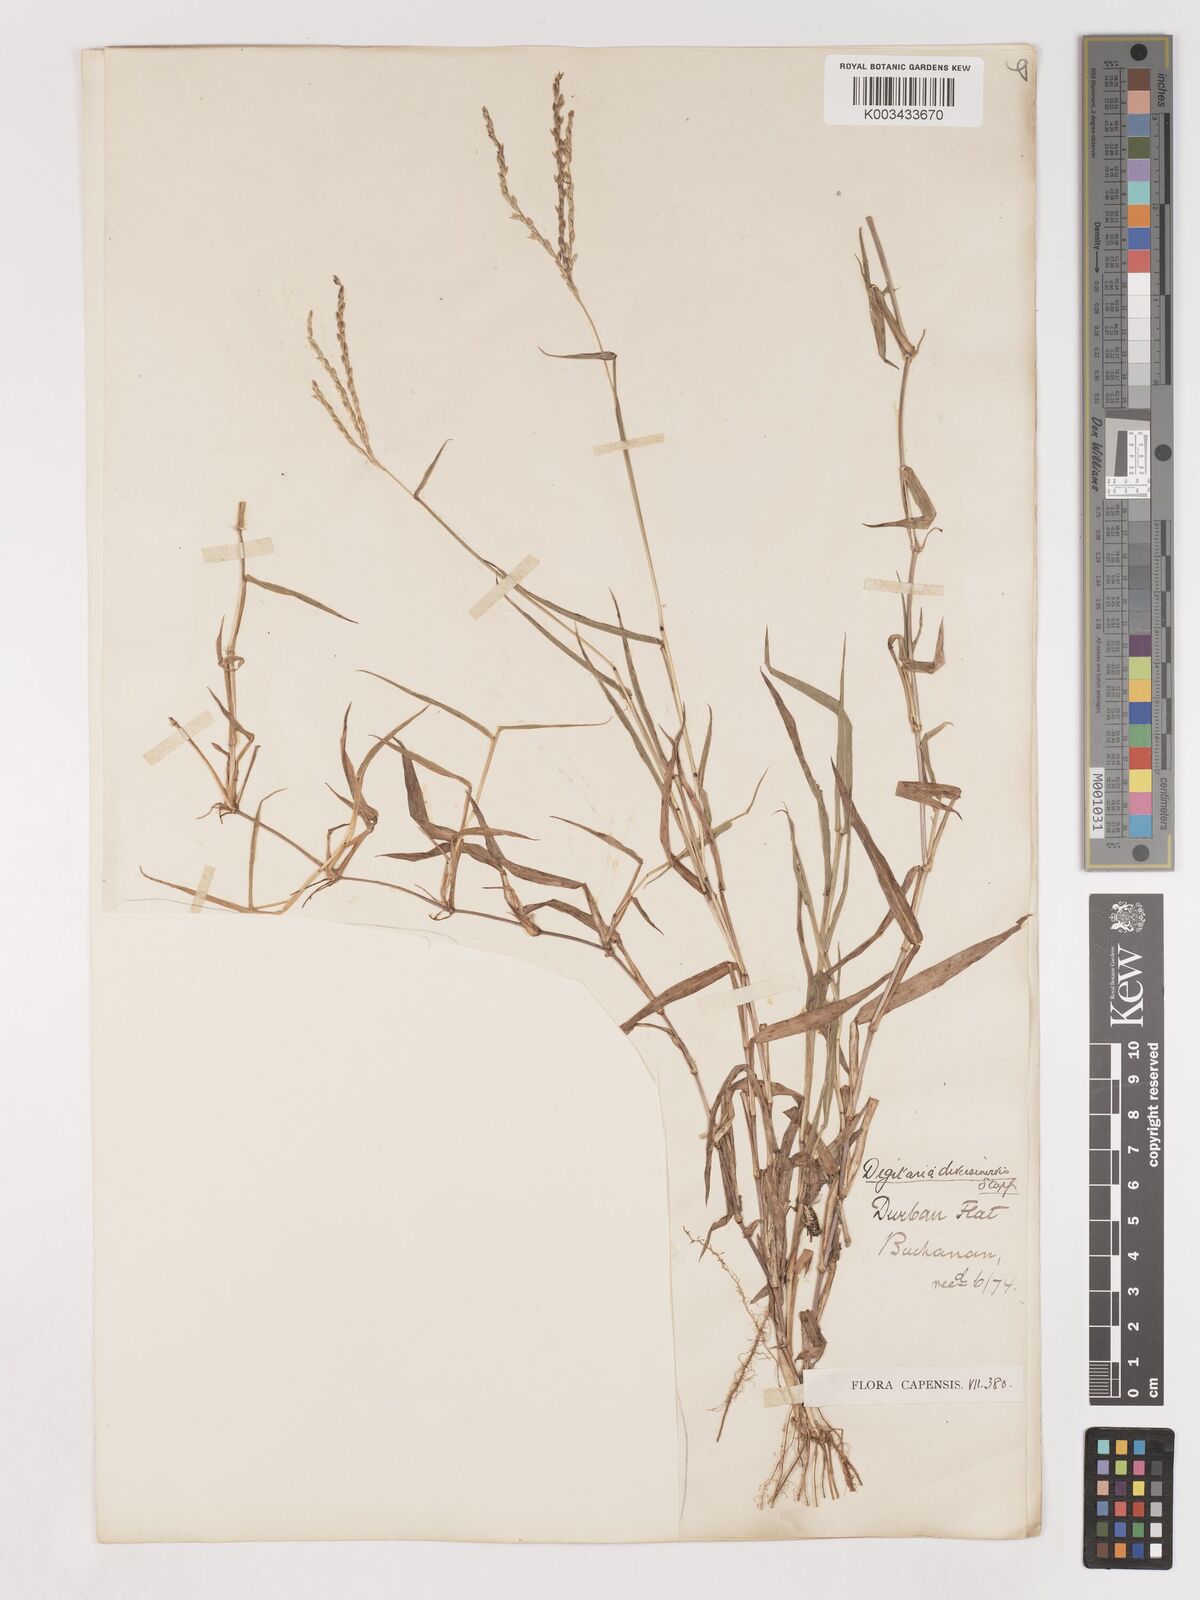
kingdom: Plantae
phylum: Tracheophyta
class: Liliopsida
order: Poales
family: Poaceae
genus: Digitaria
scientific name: Digitaria diversinervis
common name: Richmond finger grass
